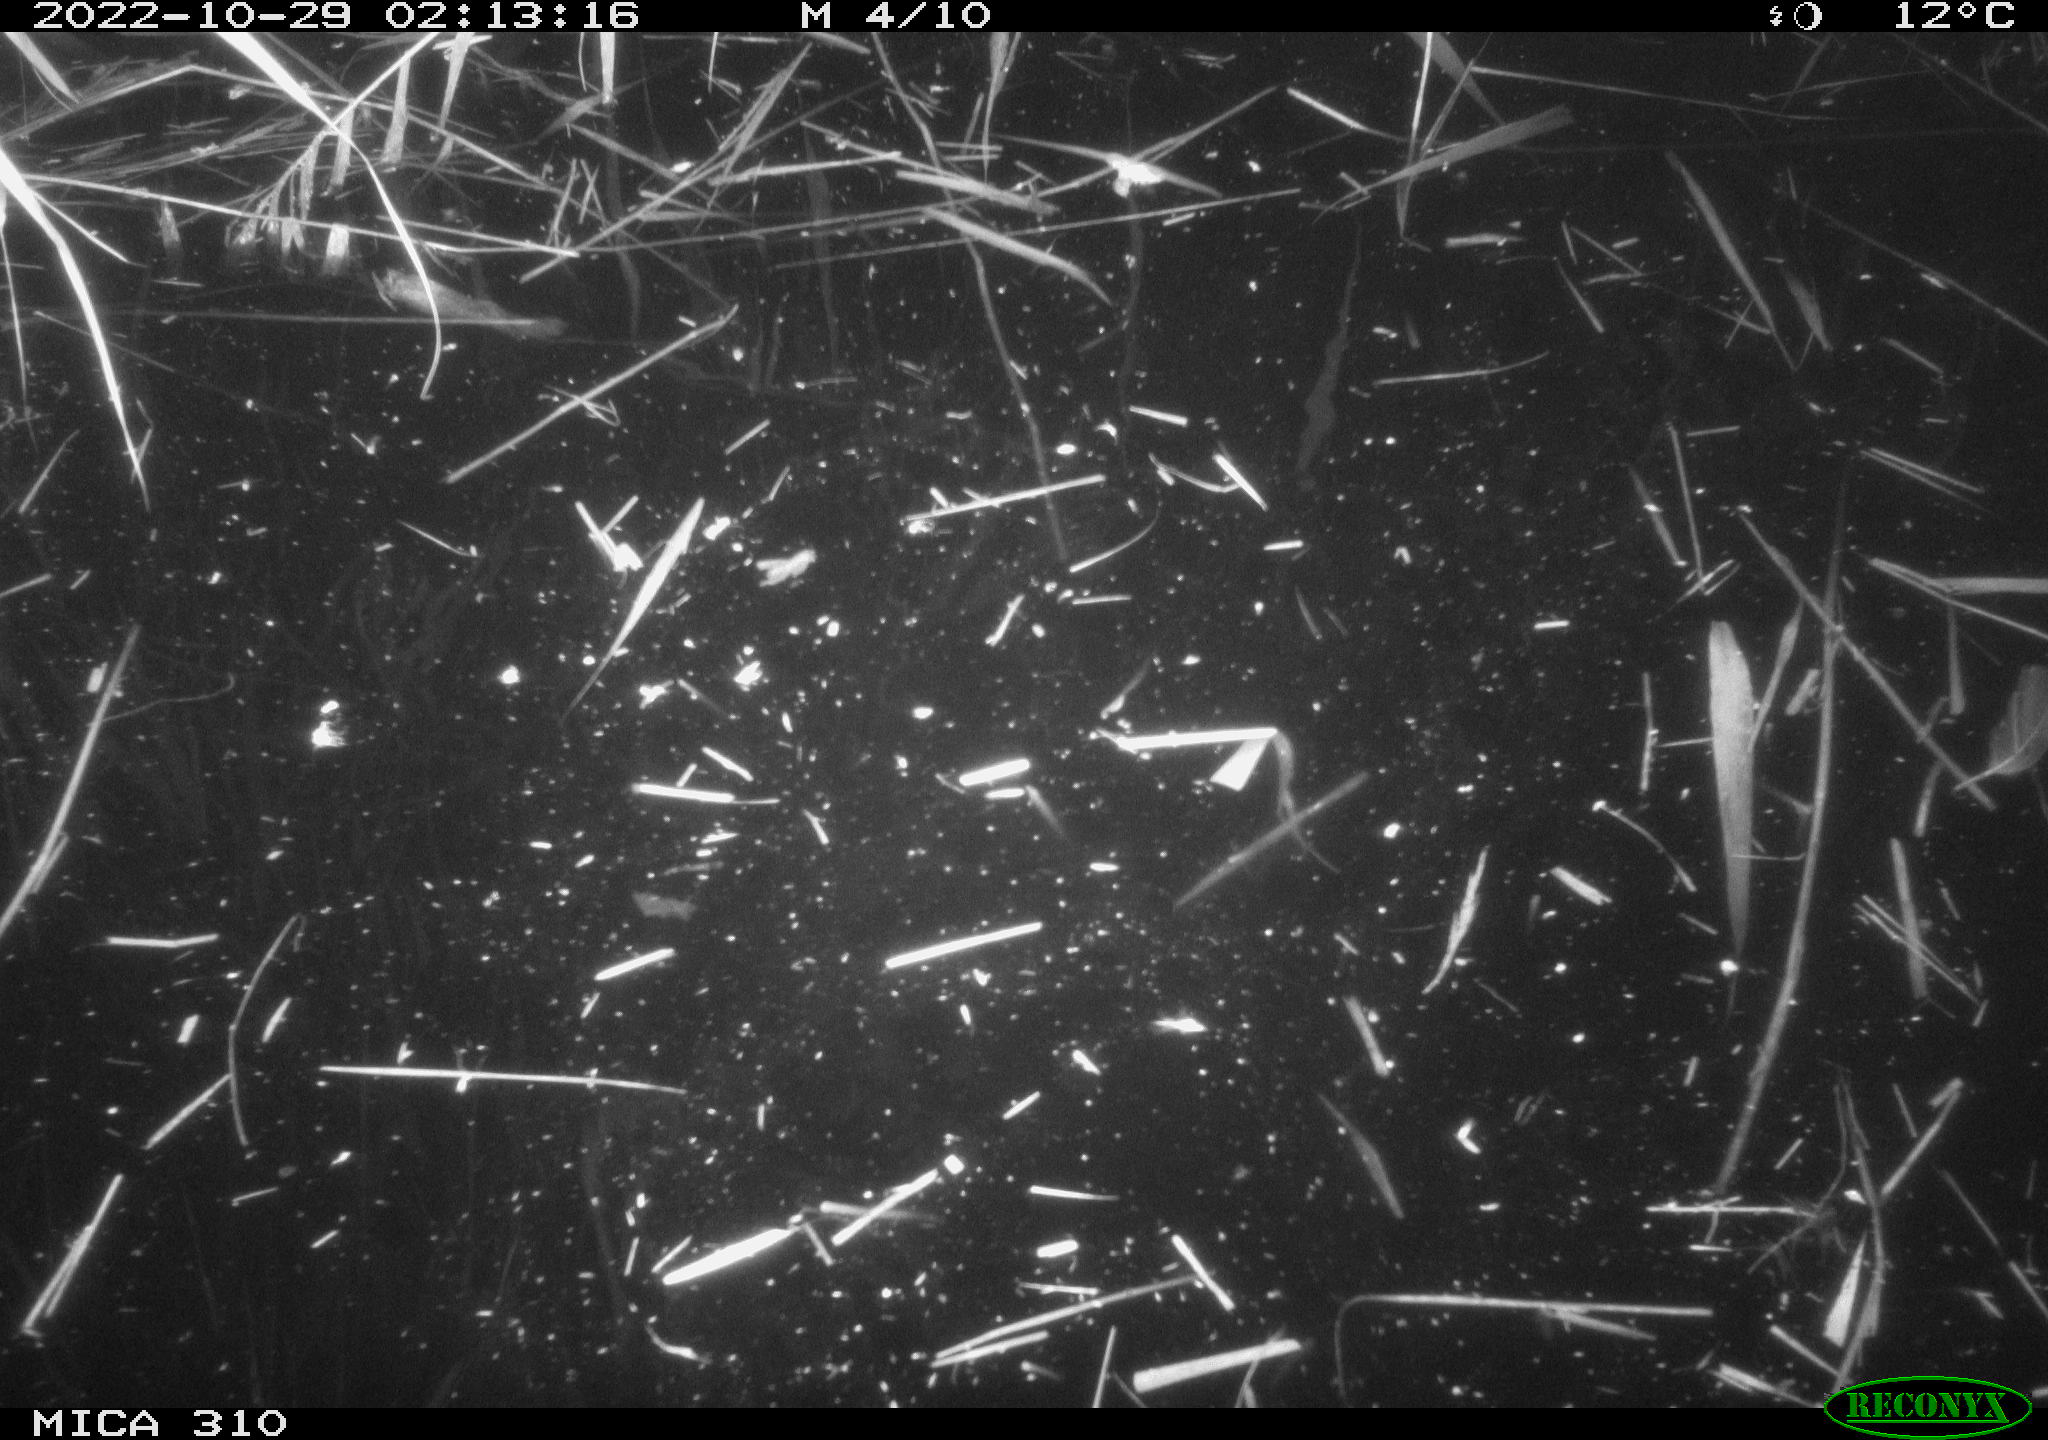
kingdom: Animalia
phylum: Chordata
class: Mammalia
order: Rodentia
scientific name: Rodentia
